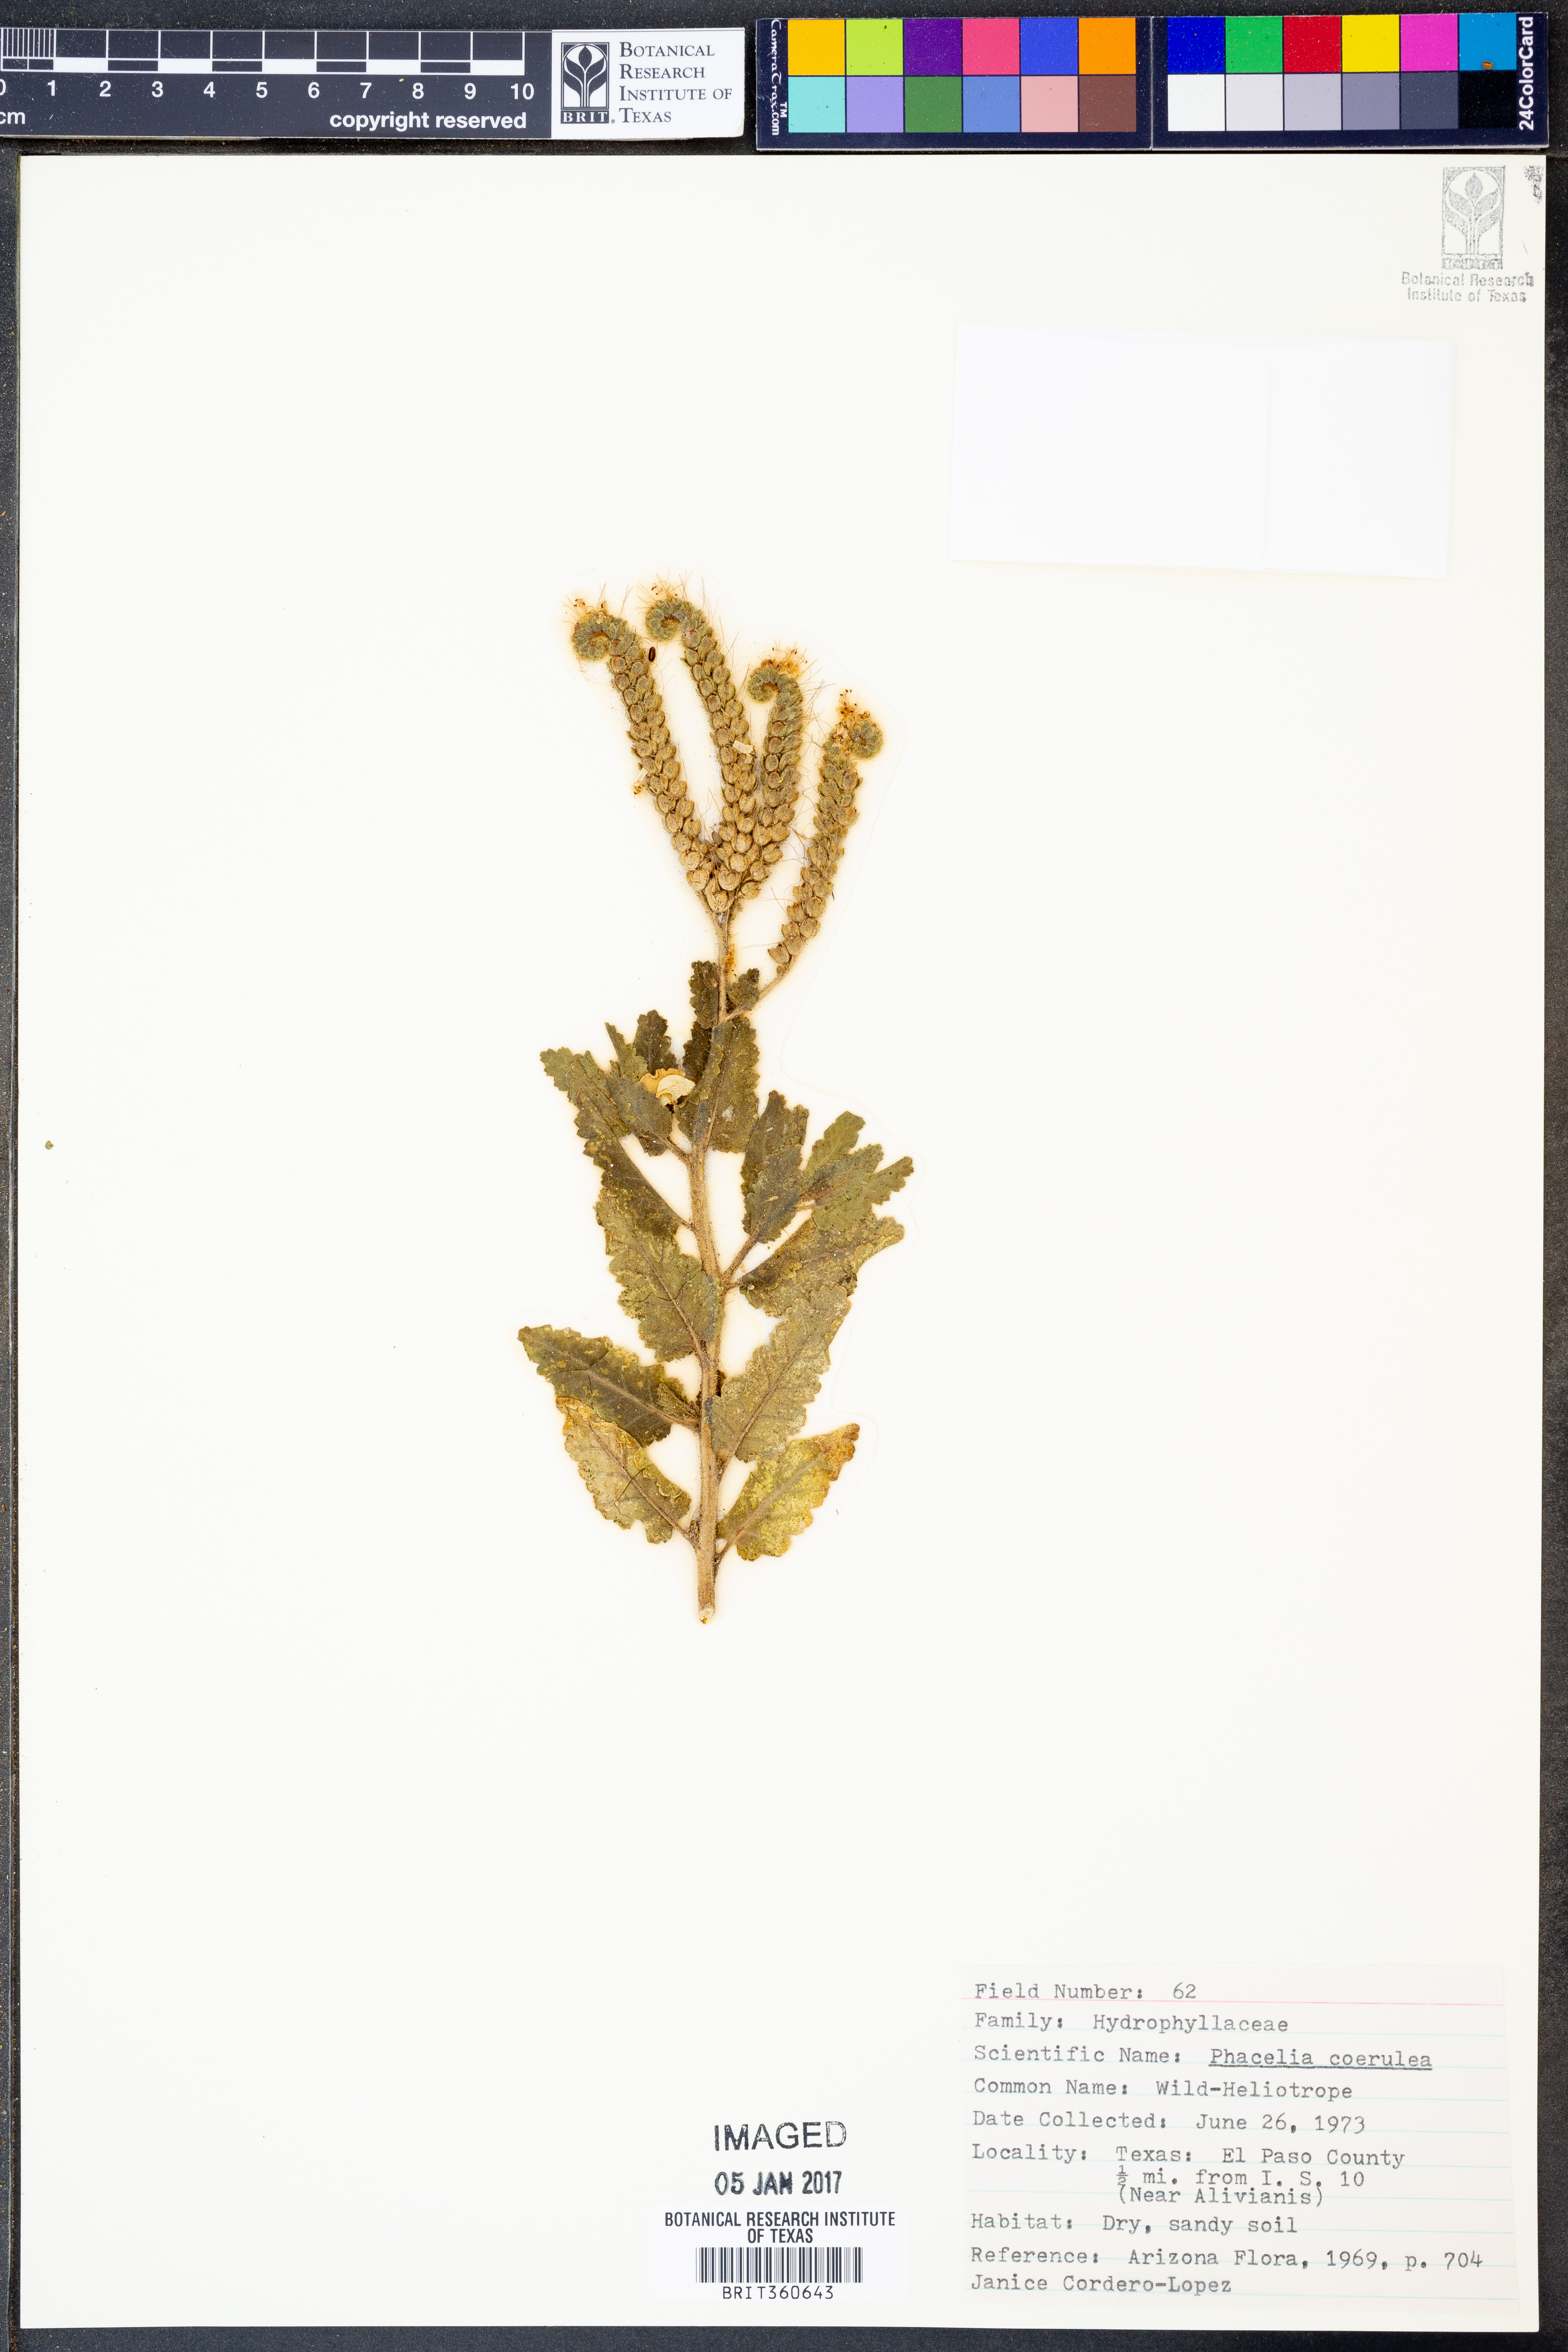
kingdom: Plantae
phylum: Tracheophyta
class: Magnoliopsida
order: Boraginales
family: Hydrophyllaceae
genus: Phacelia
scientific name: Phacelia coerulea
